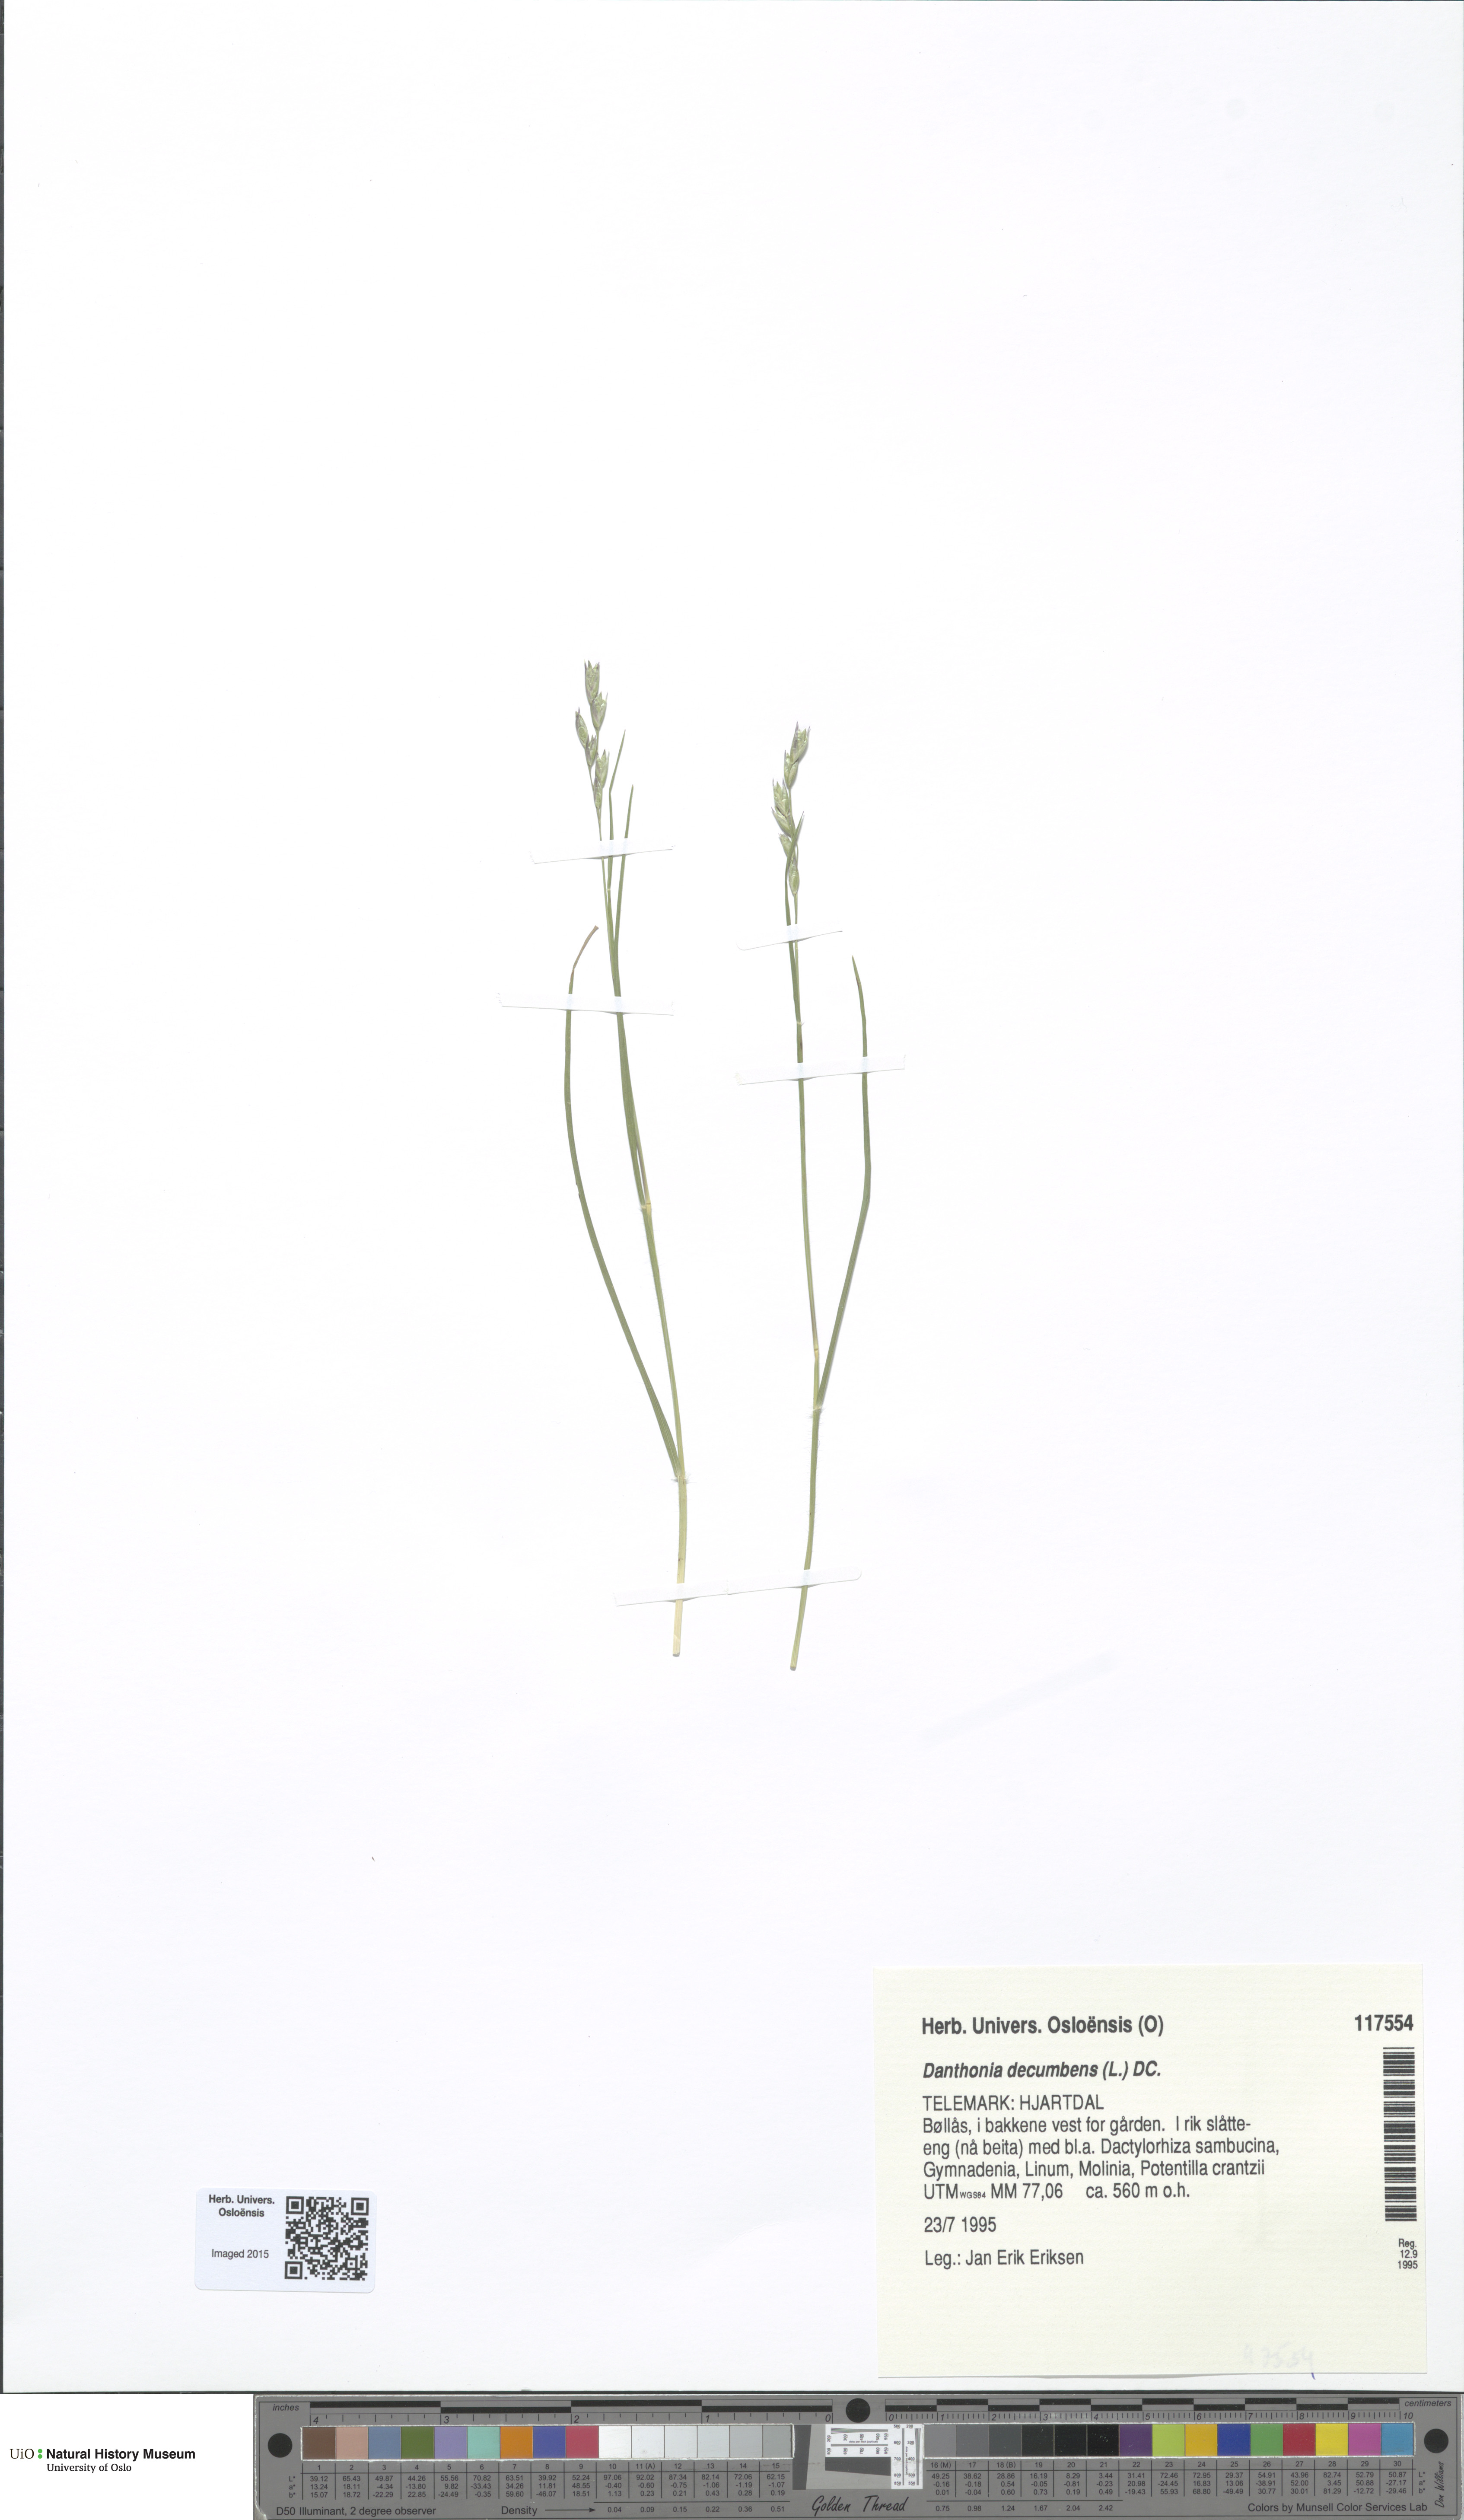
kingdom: Plantae
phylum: Tracheophyta
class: Liliopsida
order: Poales
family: Poaceae
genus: Danthonia
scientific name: Danthonia decumbens
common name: Common heathgrass
